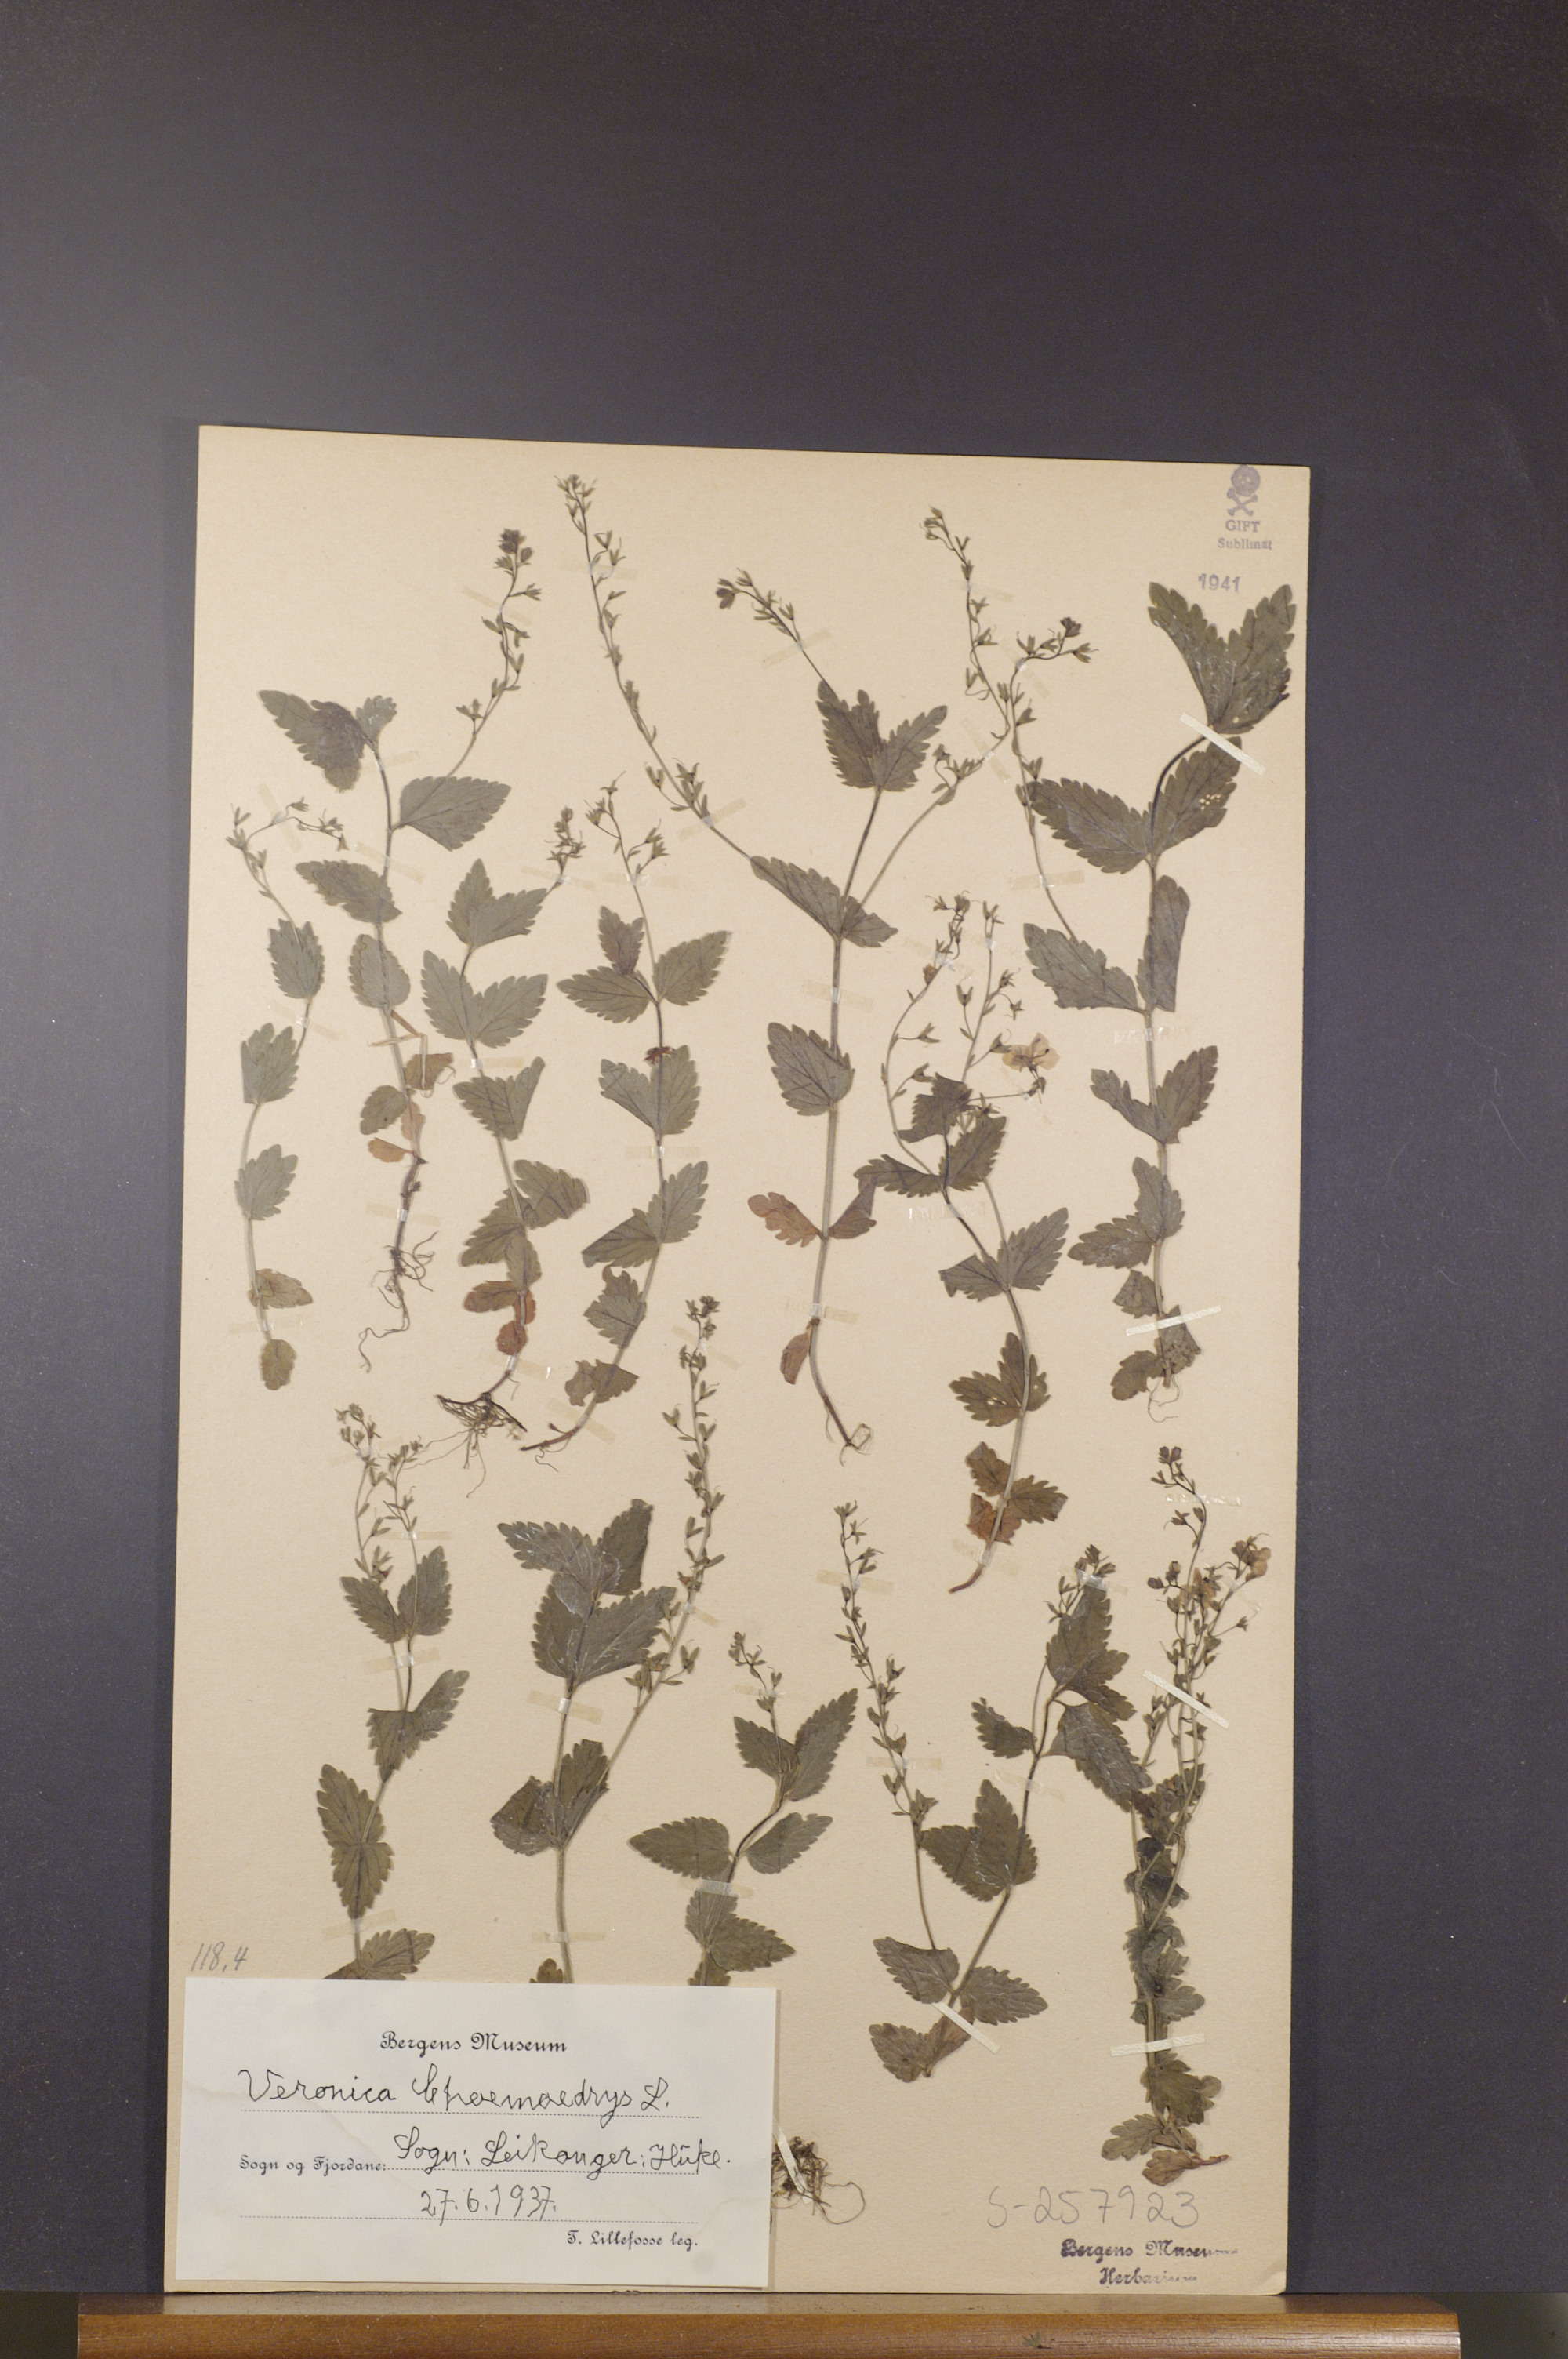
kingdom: Plantae
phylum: Tracheophyta
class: Magnoliopsida
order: Lamiales
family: Plantaginaceae
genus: Veronica
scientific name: Veronica chamaedrys
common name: Germander speedwell
